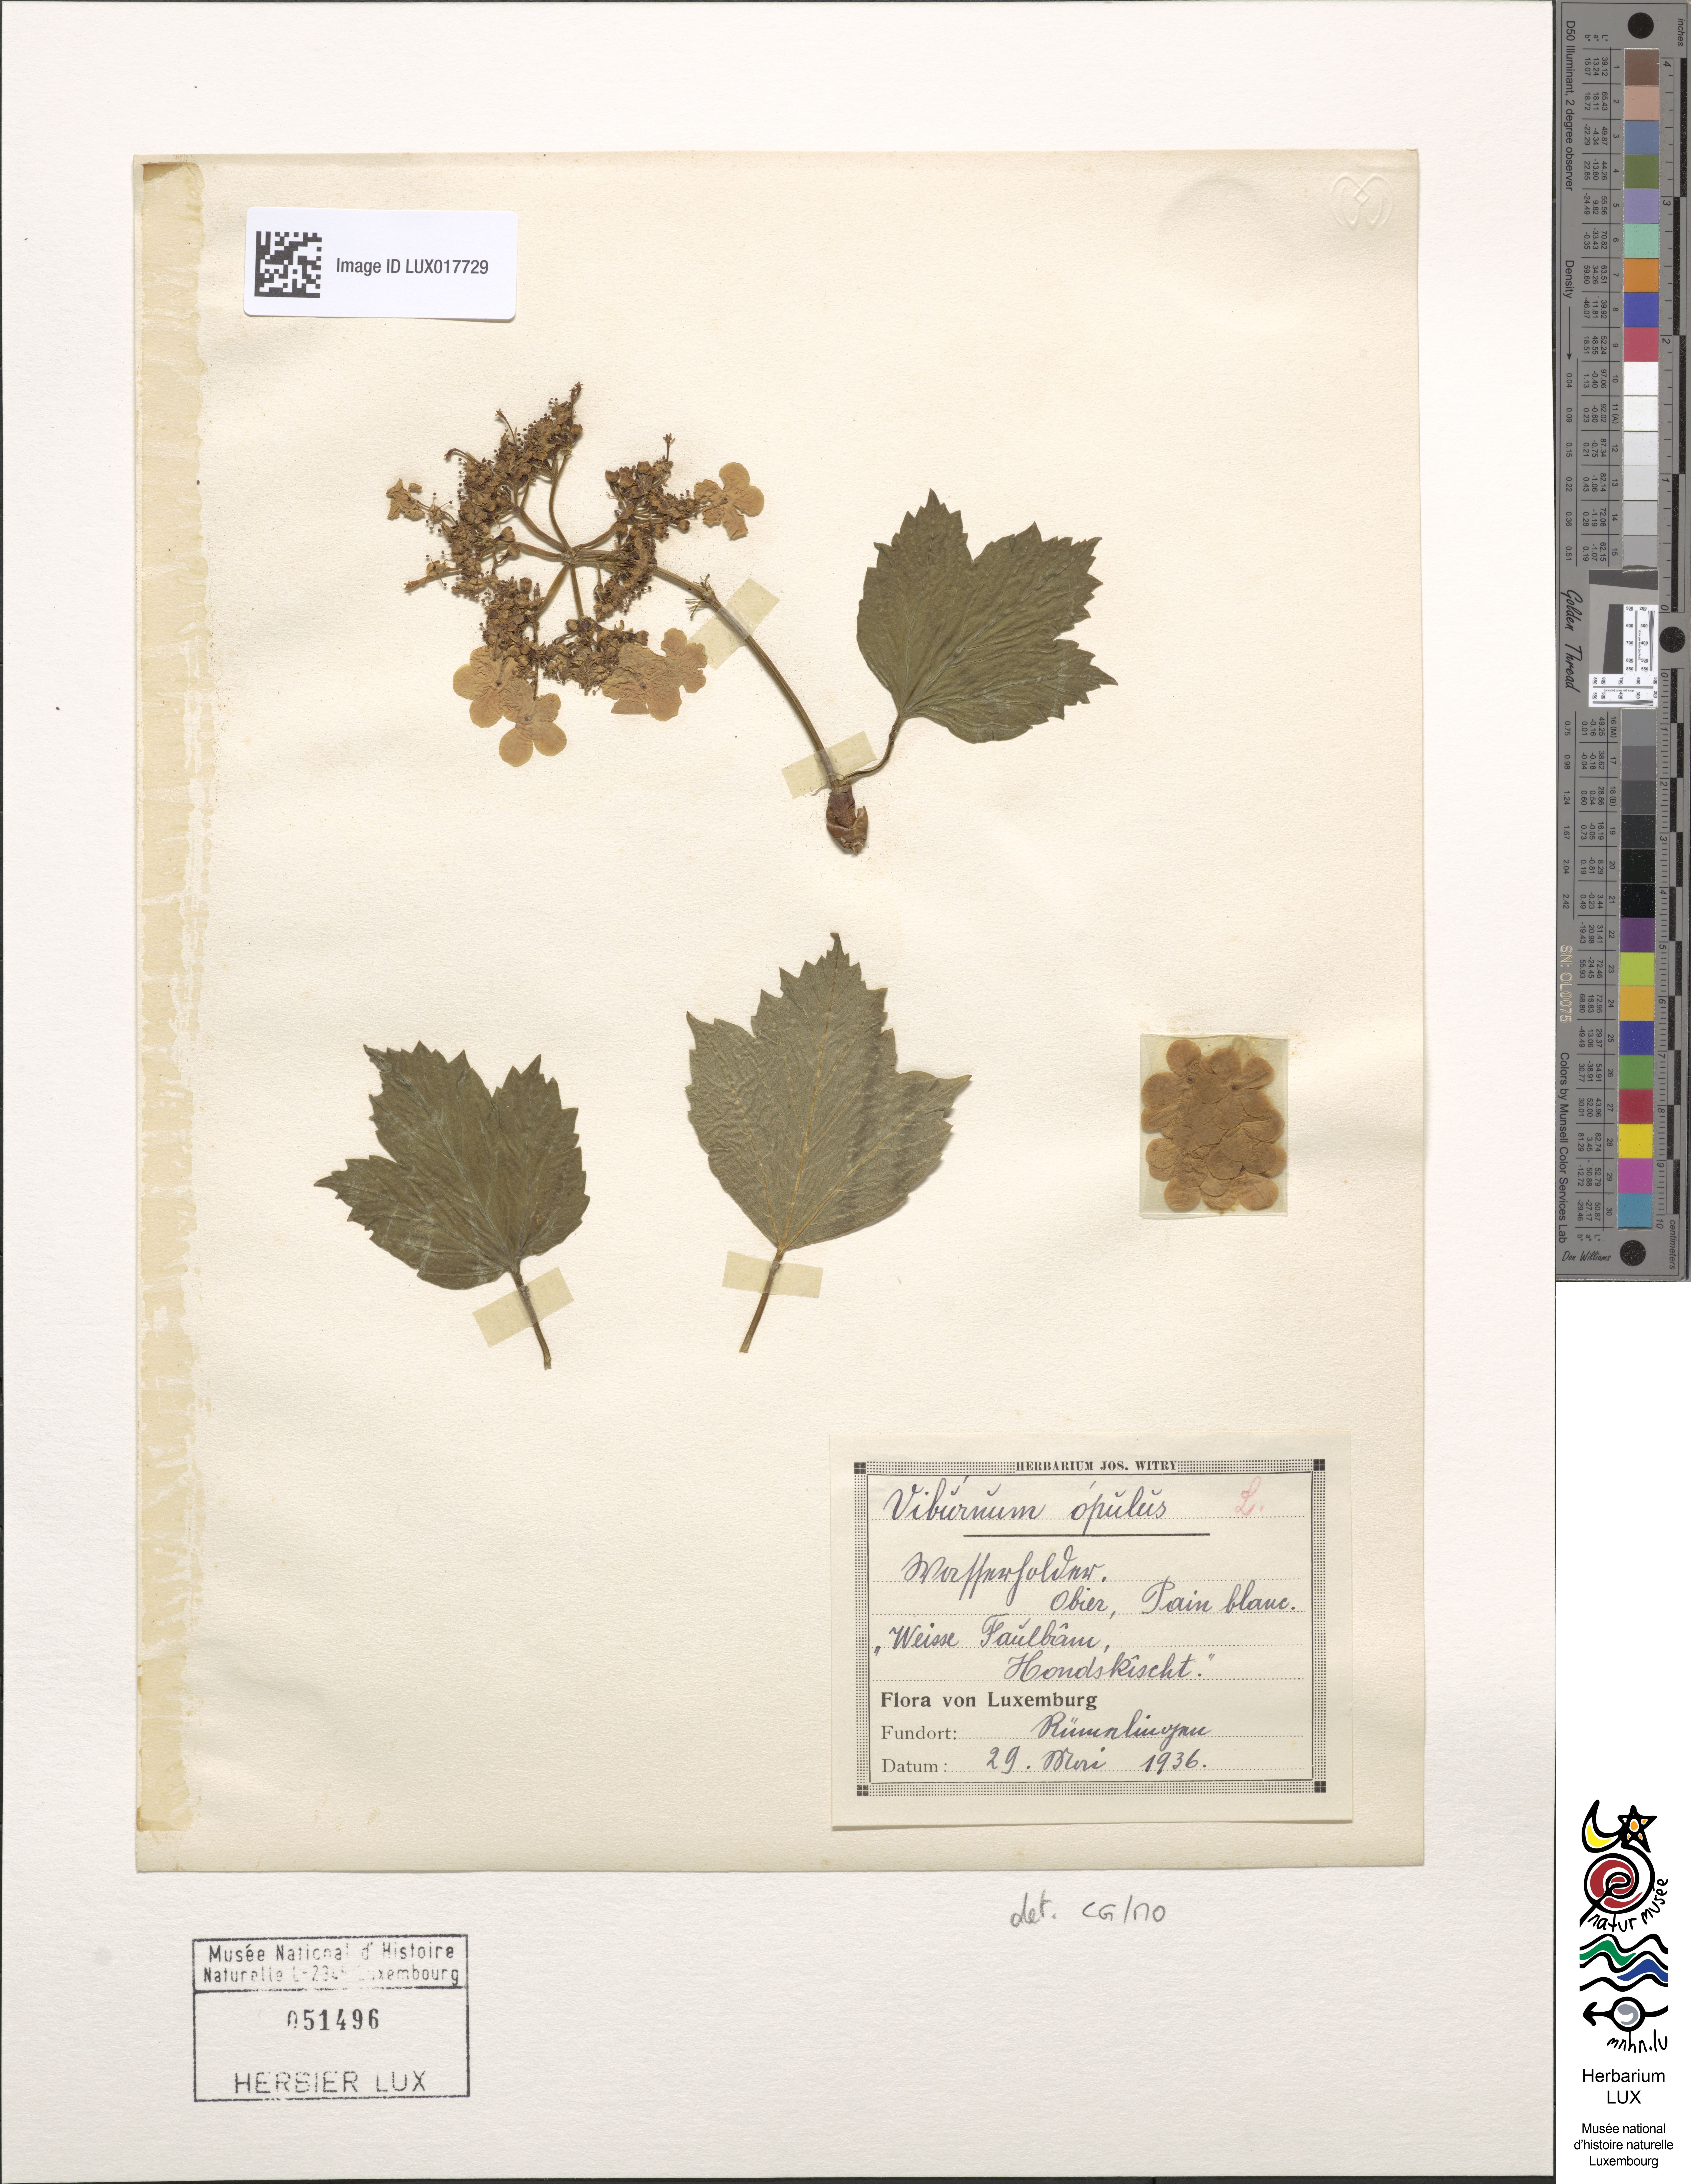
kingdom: Plantae
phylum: Tracheophyta
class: Magnoliopsida
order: Dipsacales
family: Viburnaceae
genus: Viburnum
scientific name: Viburnum opulus
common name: Guelder-rose
